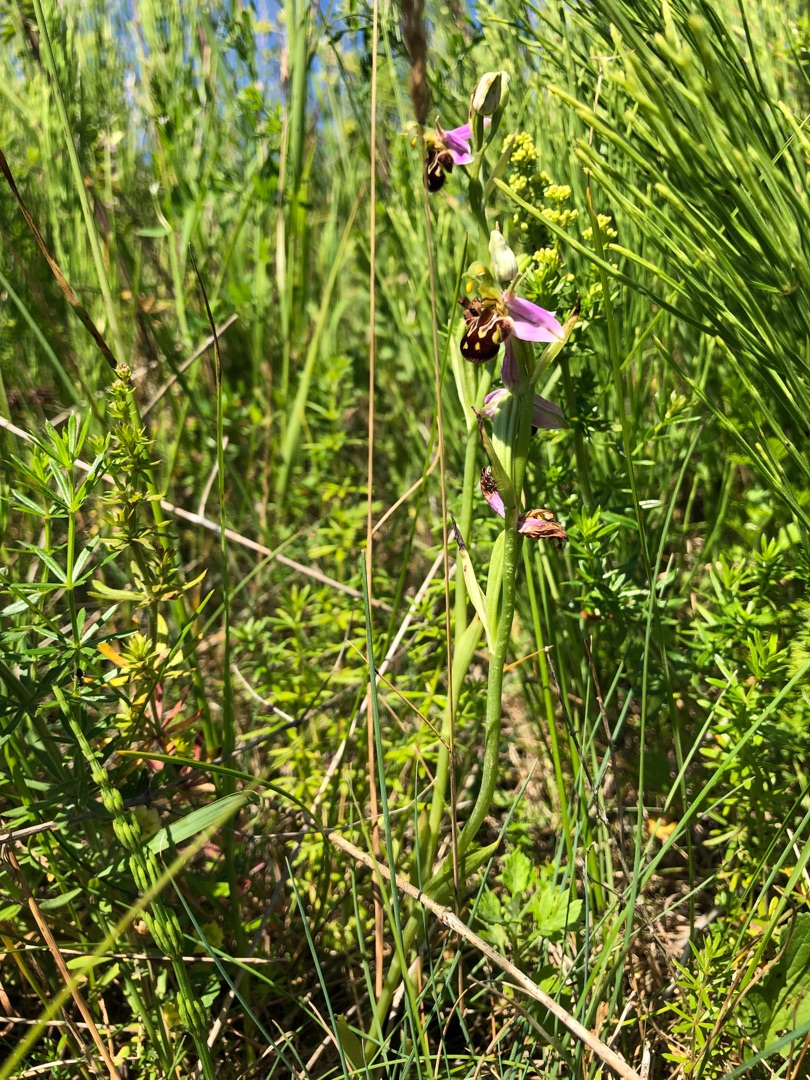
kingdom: Plantae
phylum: Tracheophyta
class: Liliopsida
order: Asparagales
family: Orchidaceae
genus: Ophrys
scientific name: Ophrys apifera
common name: Biblomst
